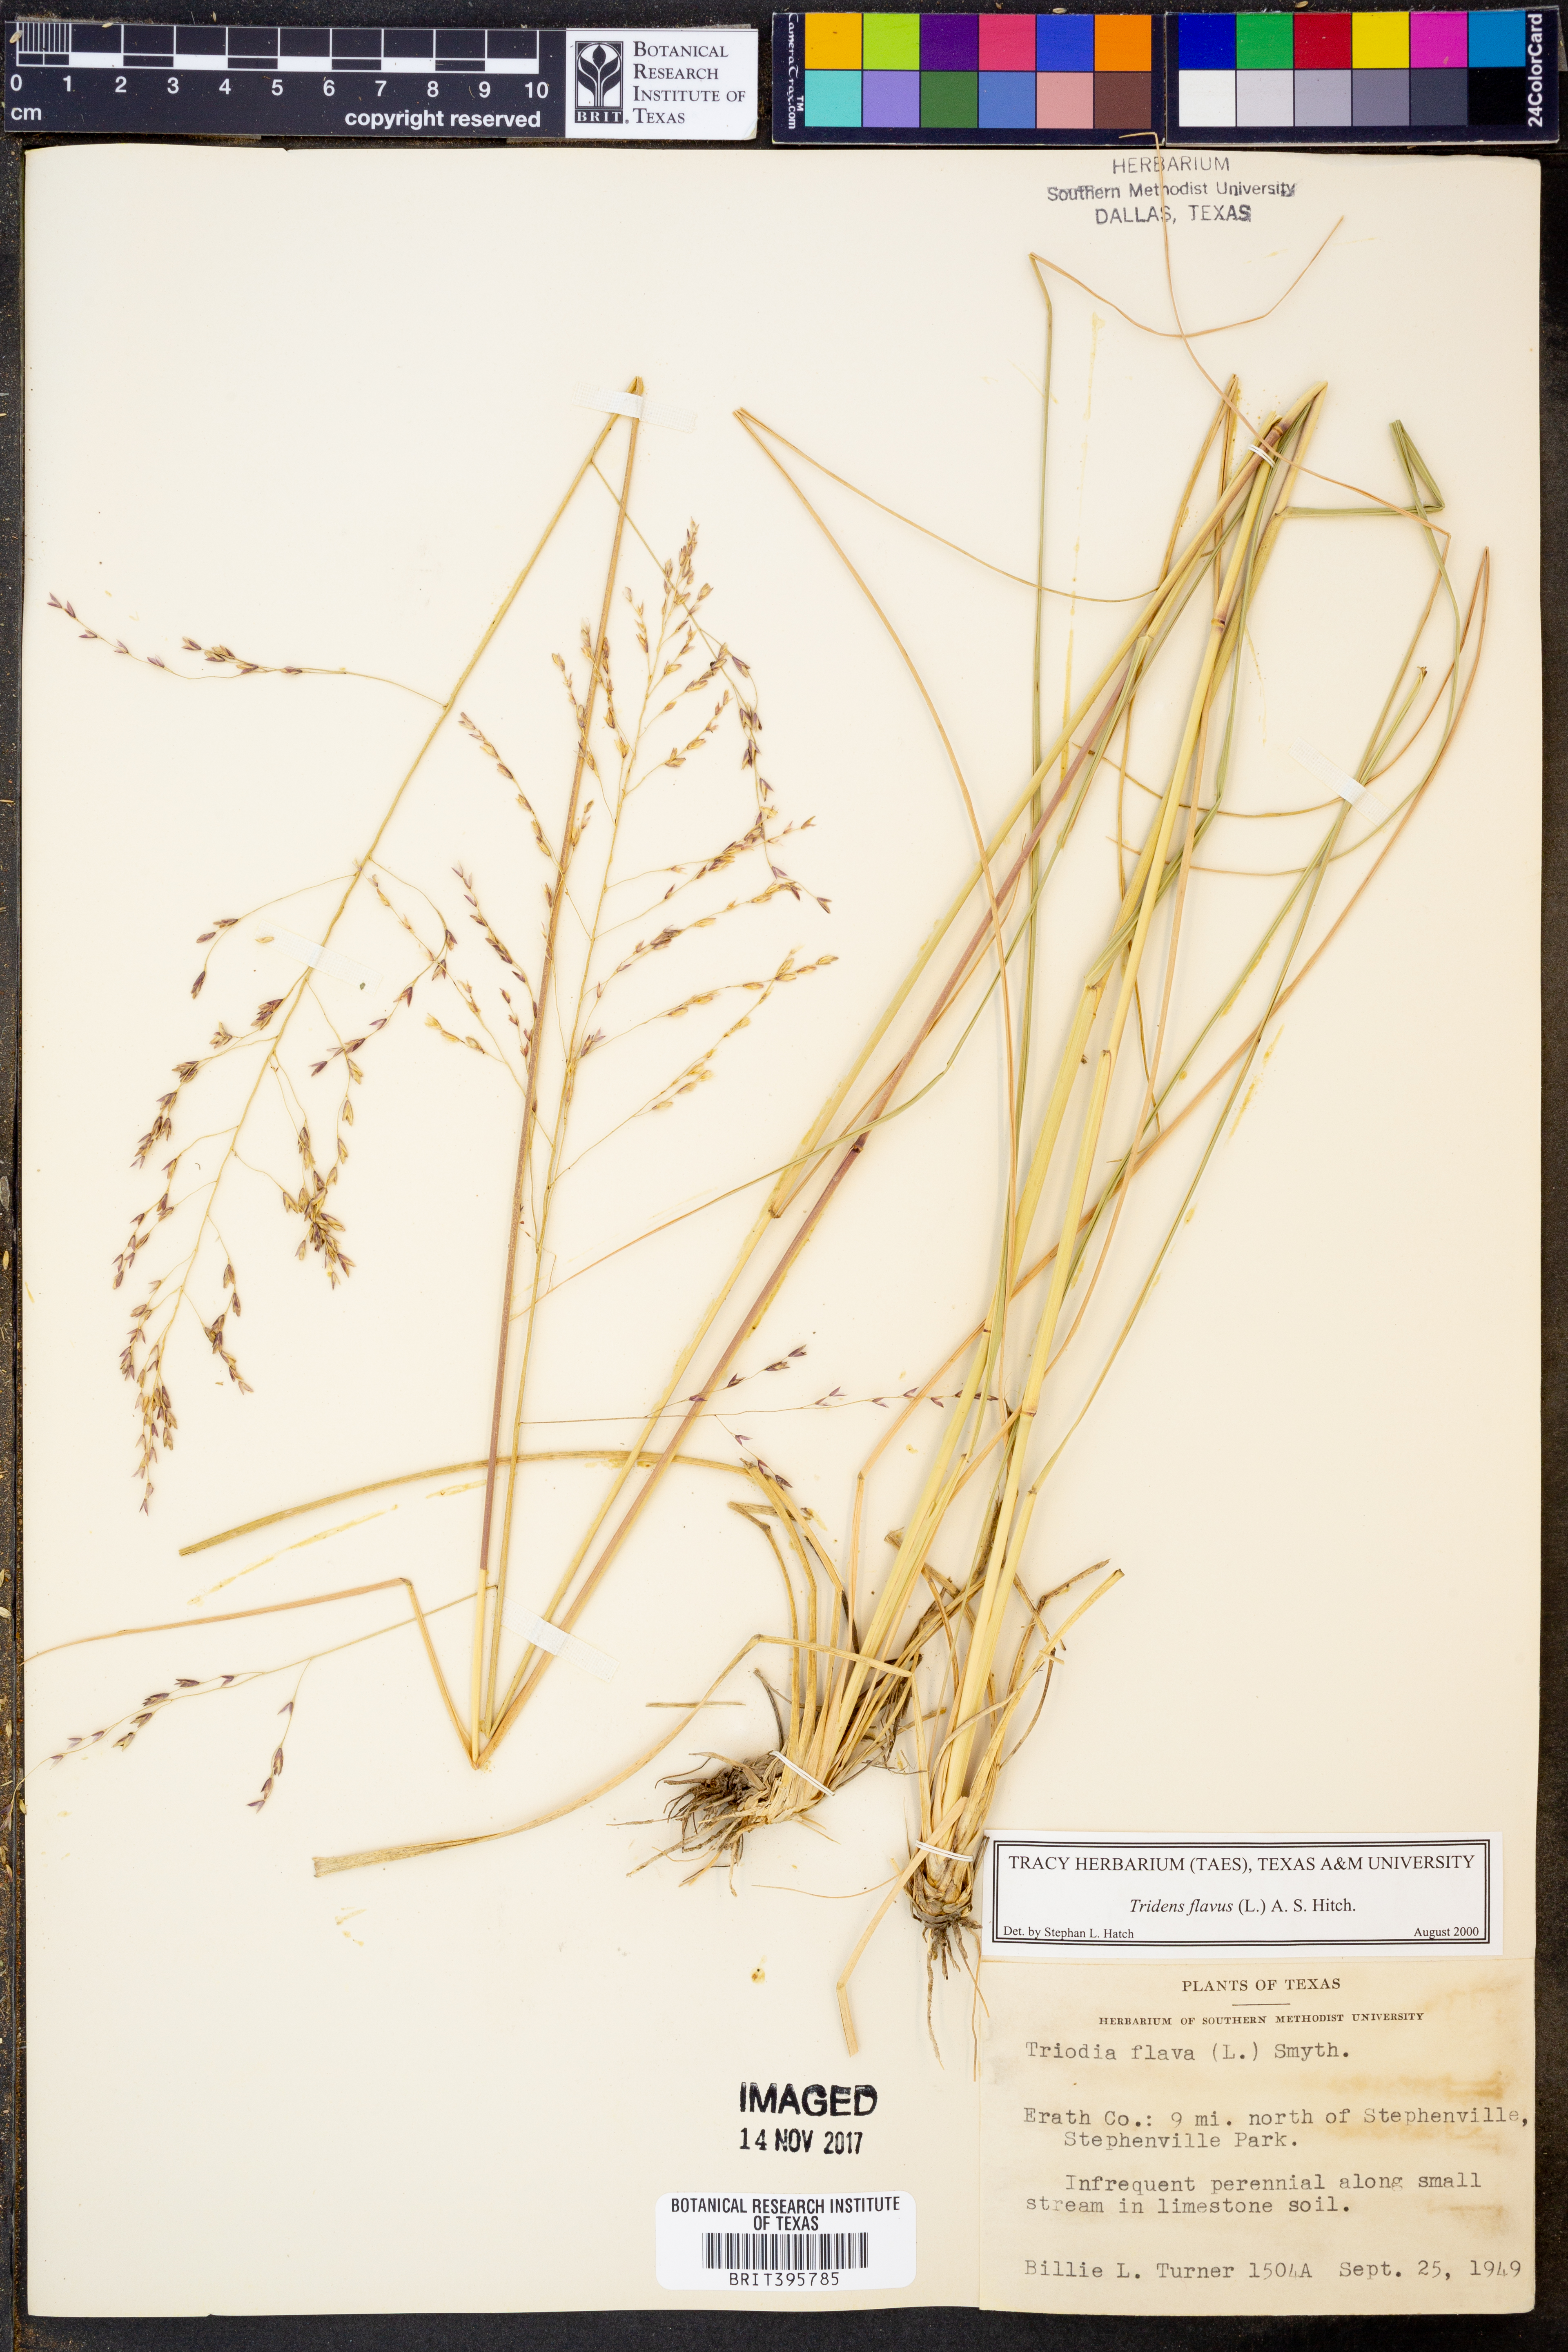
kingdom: Plantae
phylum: Tracheophyta
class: Liliopsida
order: Poales
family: Poaceae
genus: Tridens
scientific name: Tridens flavus
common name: Purpletop
